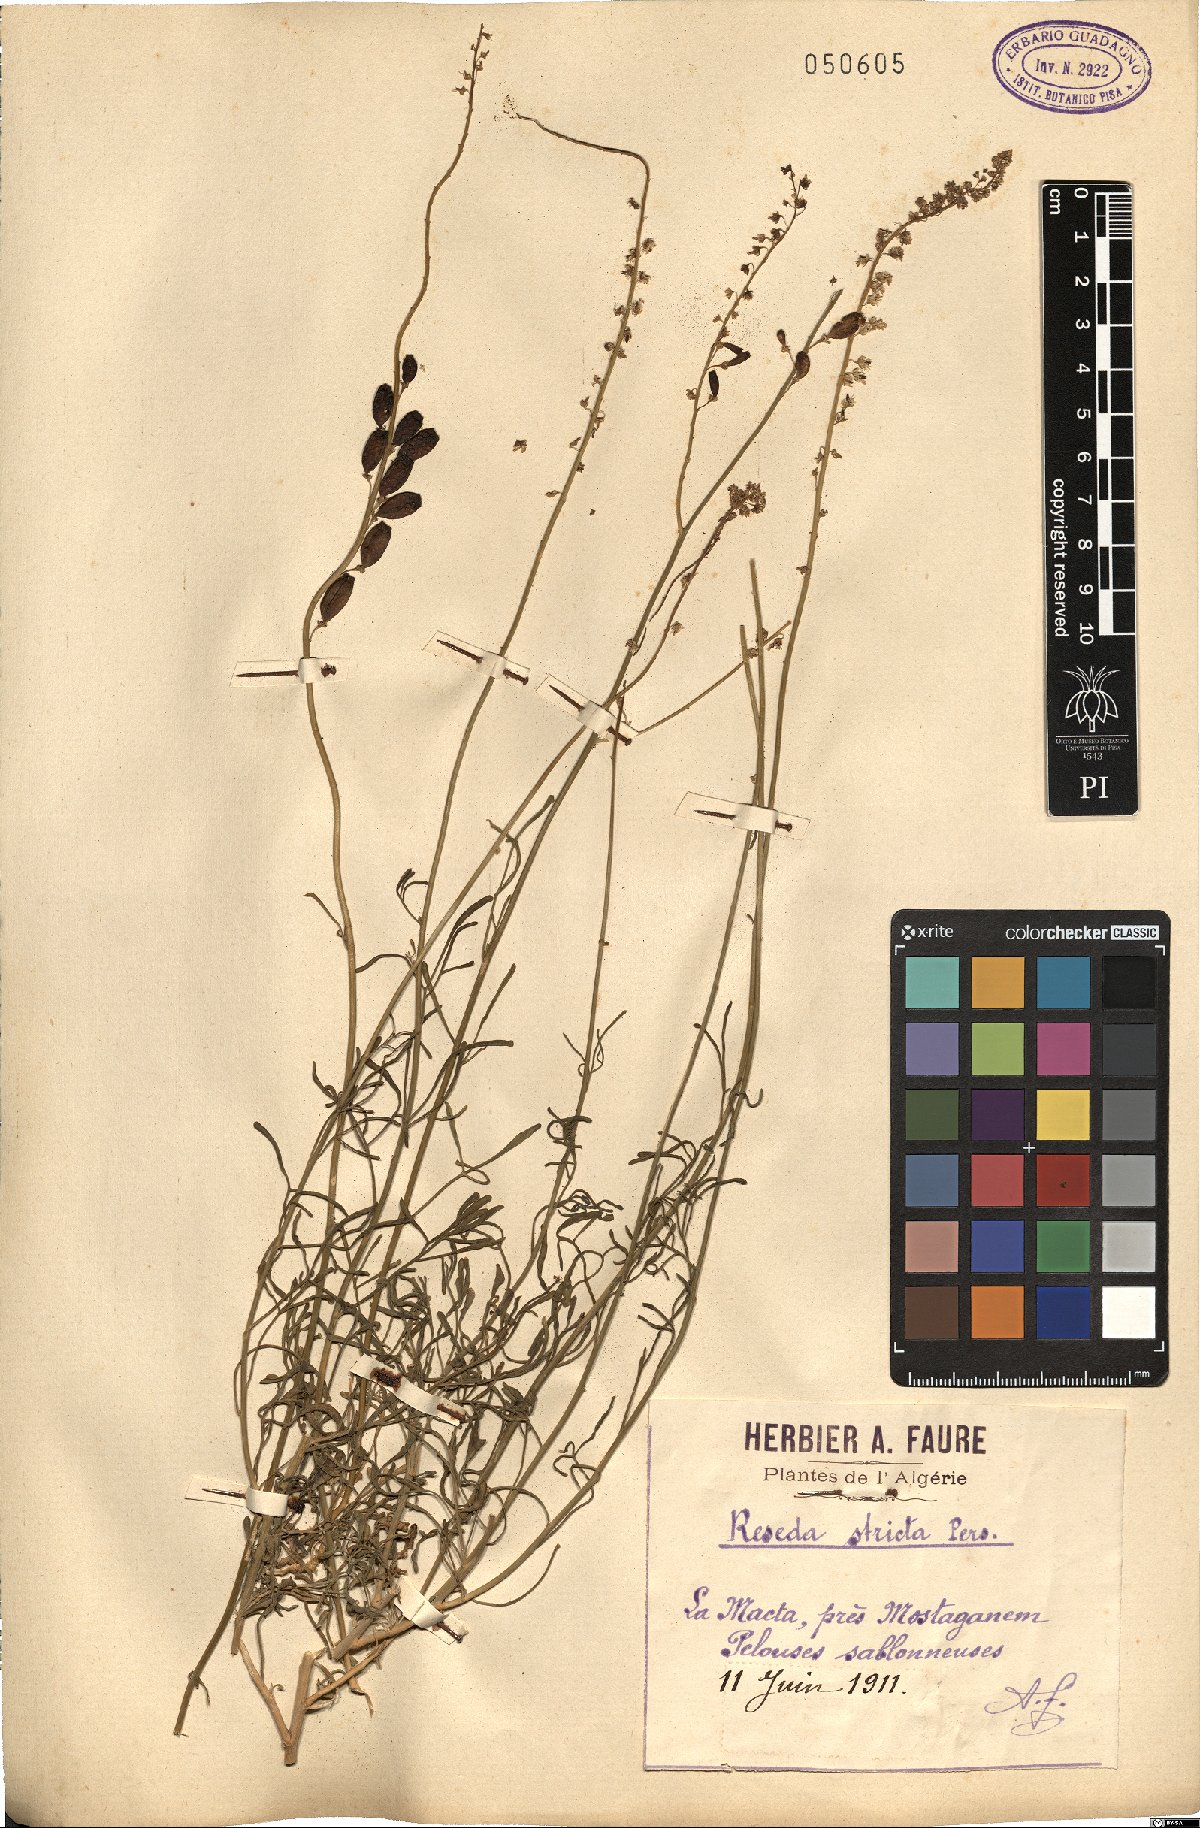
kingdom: Plantae
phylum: Tracheophyta
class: Magnoliopsida
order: Brassicales
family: Resedaceae
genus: Reseda
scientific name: Reseda stricta
